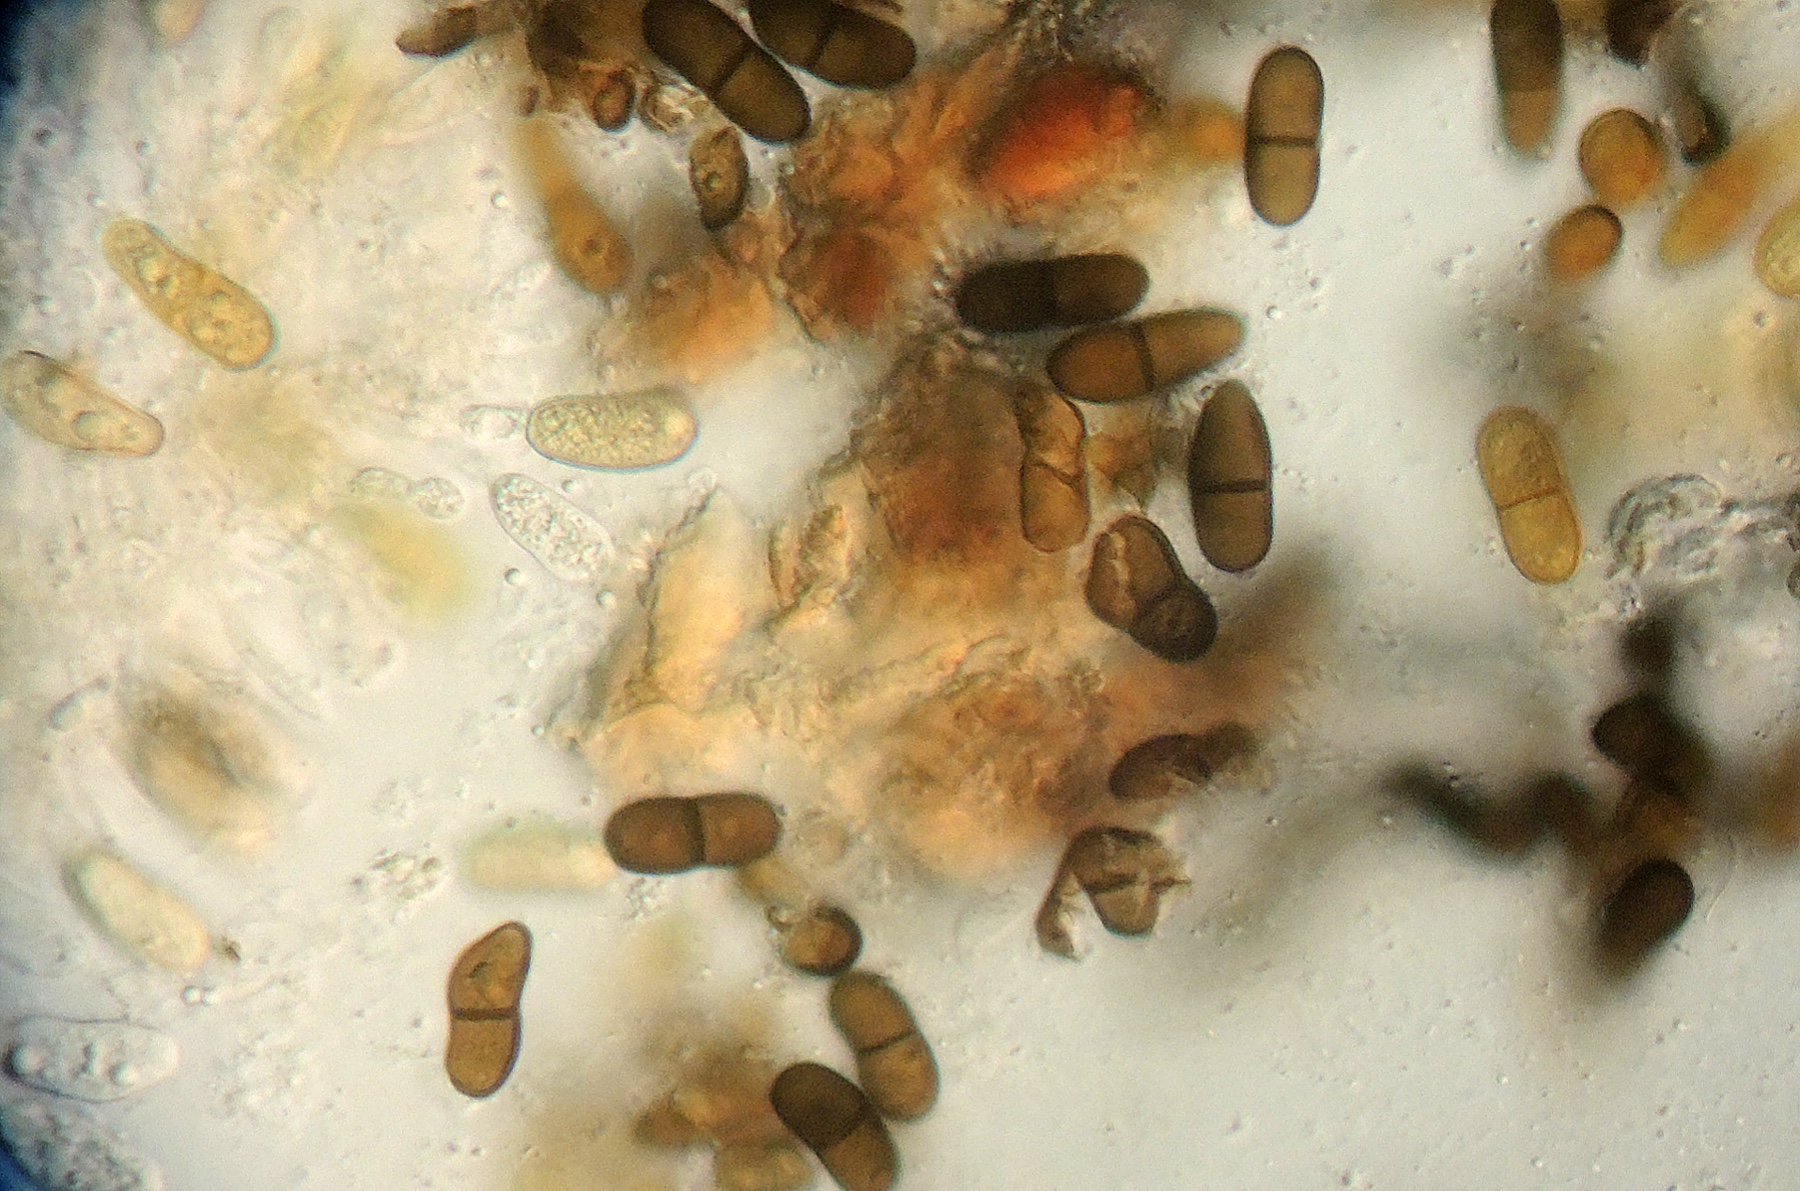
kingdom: Fungi
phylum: Ascomycota
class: Dothideomycetes
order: Botryosphaeriales
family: Botryosphaeriaceae
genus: Diplodia
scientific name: Diplodia
